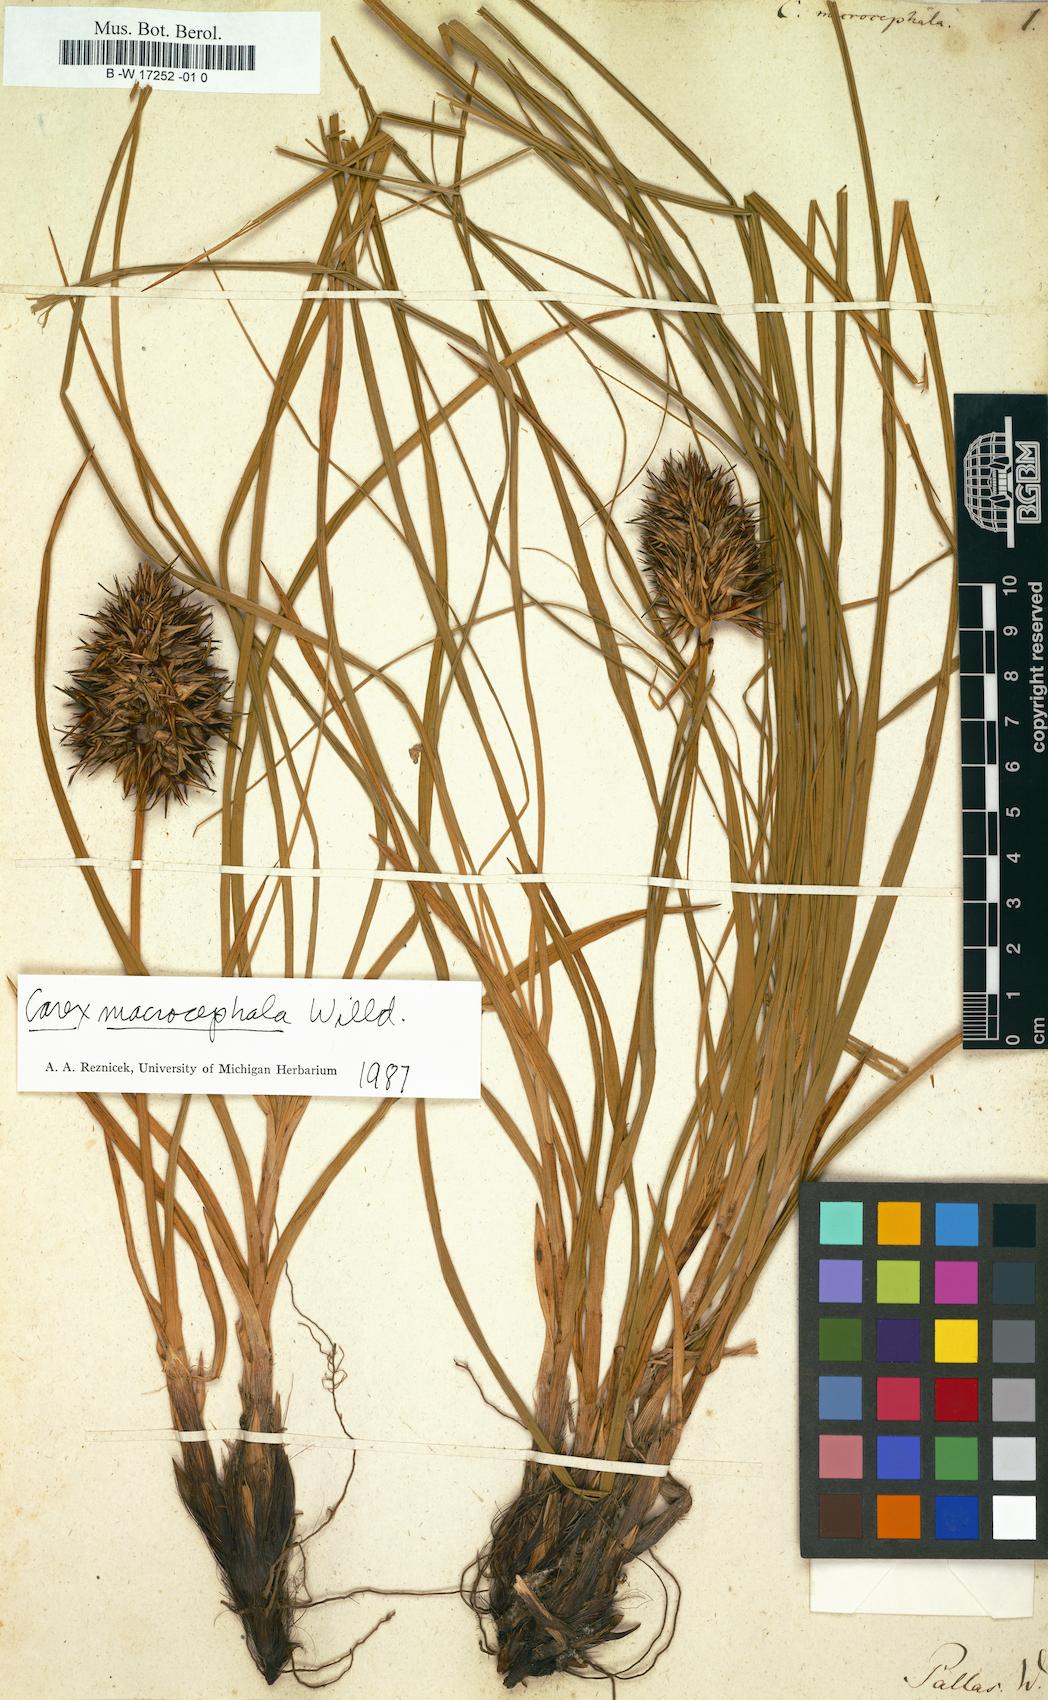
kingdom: Plantae
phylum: Tracheophyta
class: Liliopsida
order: Poales
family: Cyperaceae
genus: Carex
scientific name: Carex macrocephala
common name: Large-head sedge
